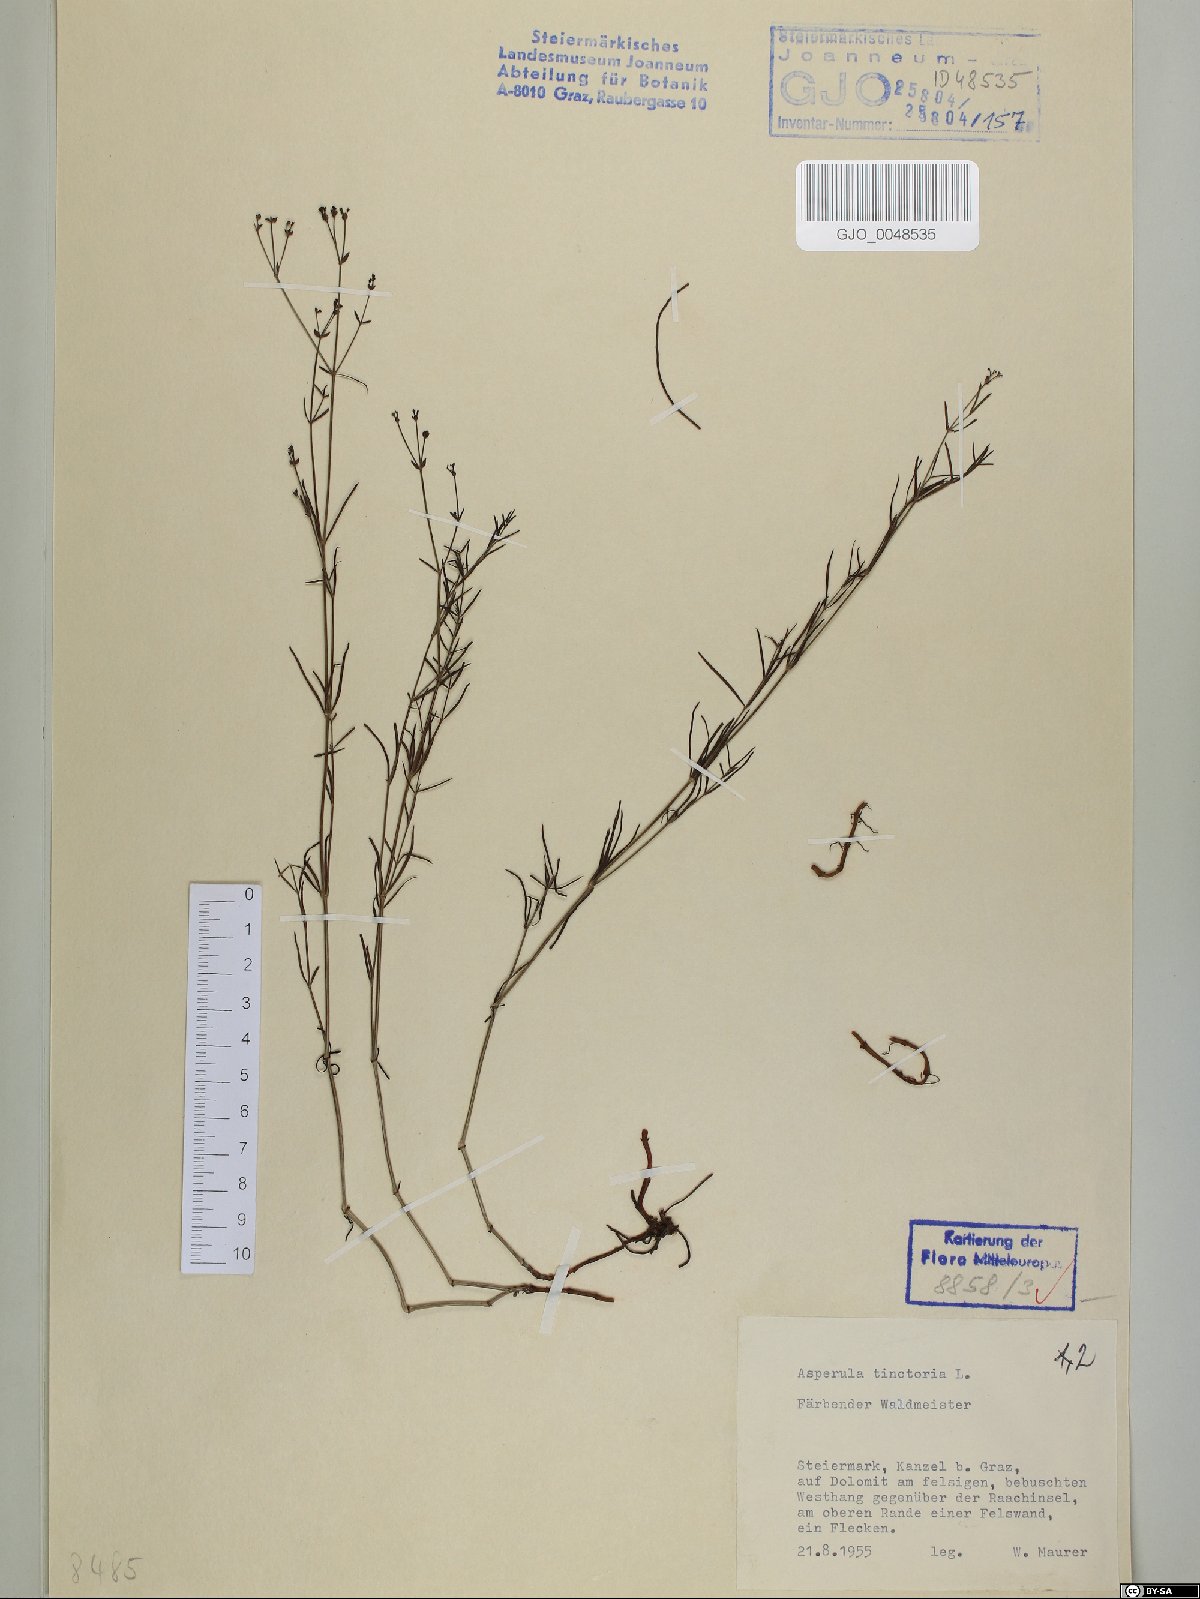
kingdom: Plantae
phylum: Tracheophyta
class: Magnoliopsida
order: Gentianales
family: Rubiaceae
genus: Asperula
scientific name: Asperula tinctoria
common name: Dyer's woodruff
